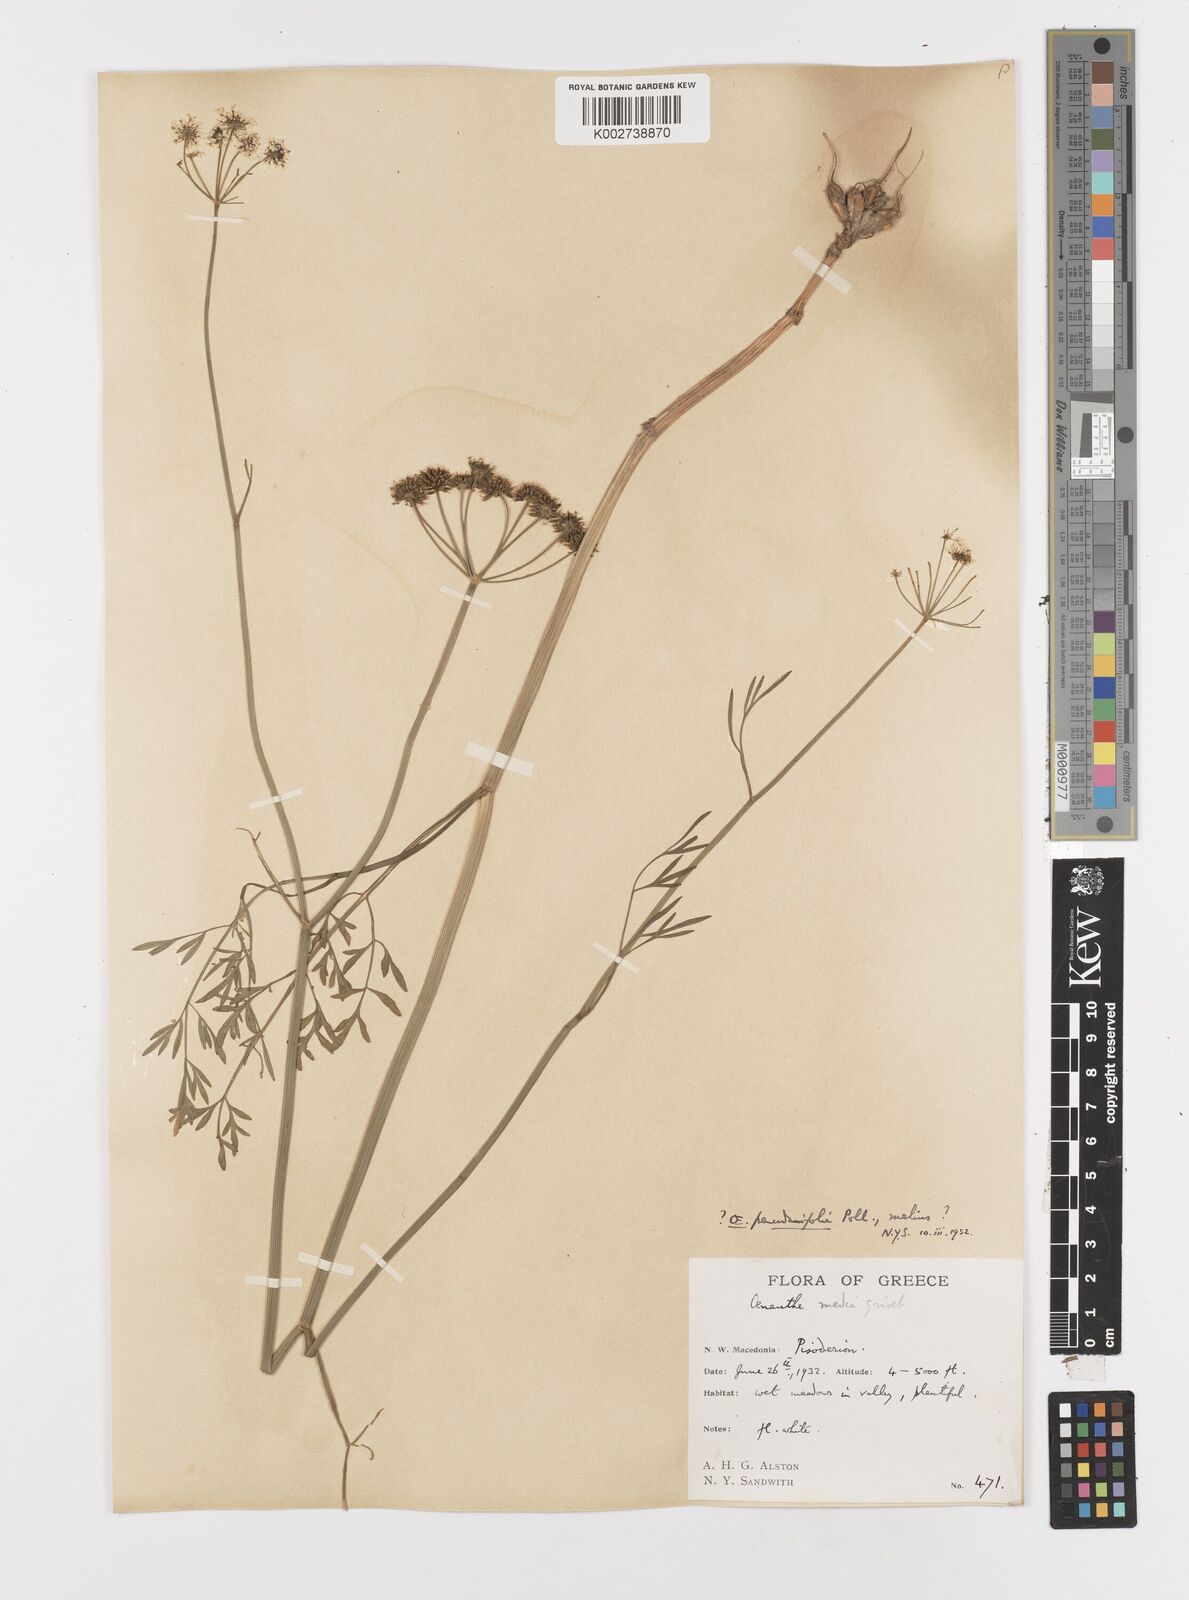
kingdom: Plantae
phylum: Tracheophyta
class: Magnoliopsida
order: Apiales
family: Apiaceae
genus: Oenanthe
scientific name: Oenanthe silaifolia
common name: Narrow-leaved water-dropwort
